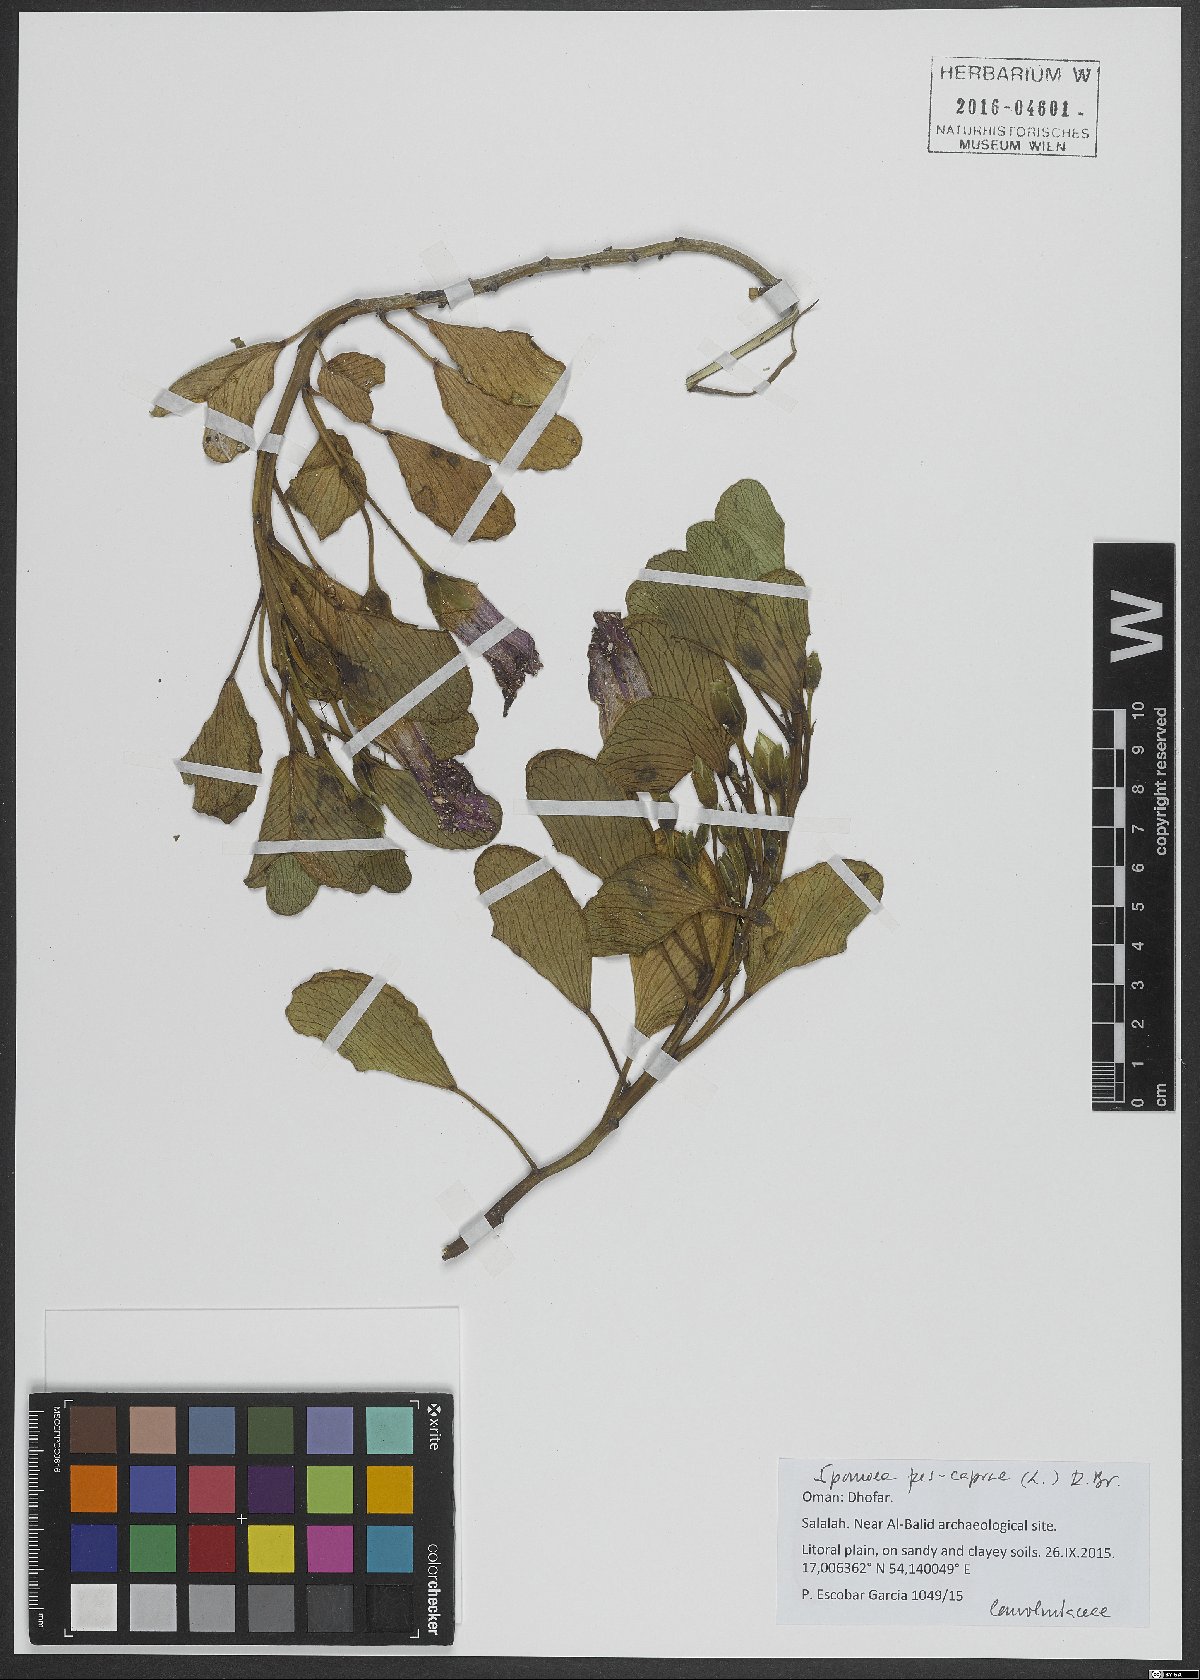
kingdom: Plantae
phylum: Tracheophyta
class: Magnoliopsida
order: Solanales
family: Convolvulaceae
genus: Ipomoea
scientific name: Ipomoea pes-caprae
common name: Beach morning glory
